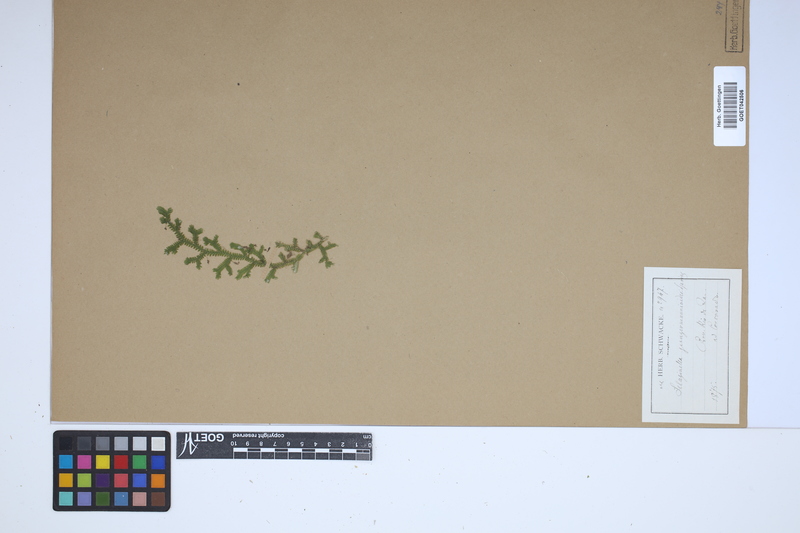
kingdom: Plantae
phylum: Tracheophyta
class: Lycopodiopsida
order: Selaginellales
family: Selaginellaceae
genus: Selaginella
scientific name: Selaginella jungermannioides
